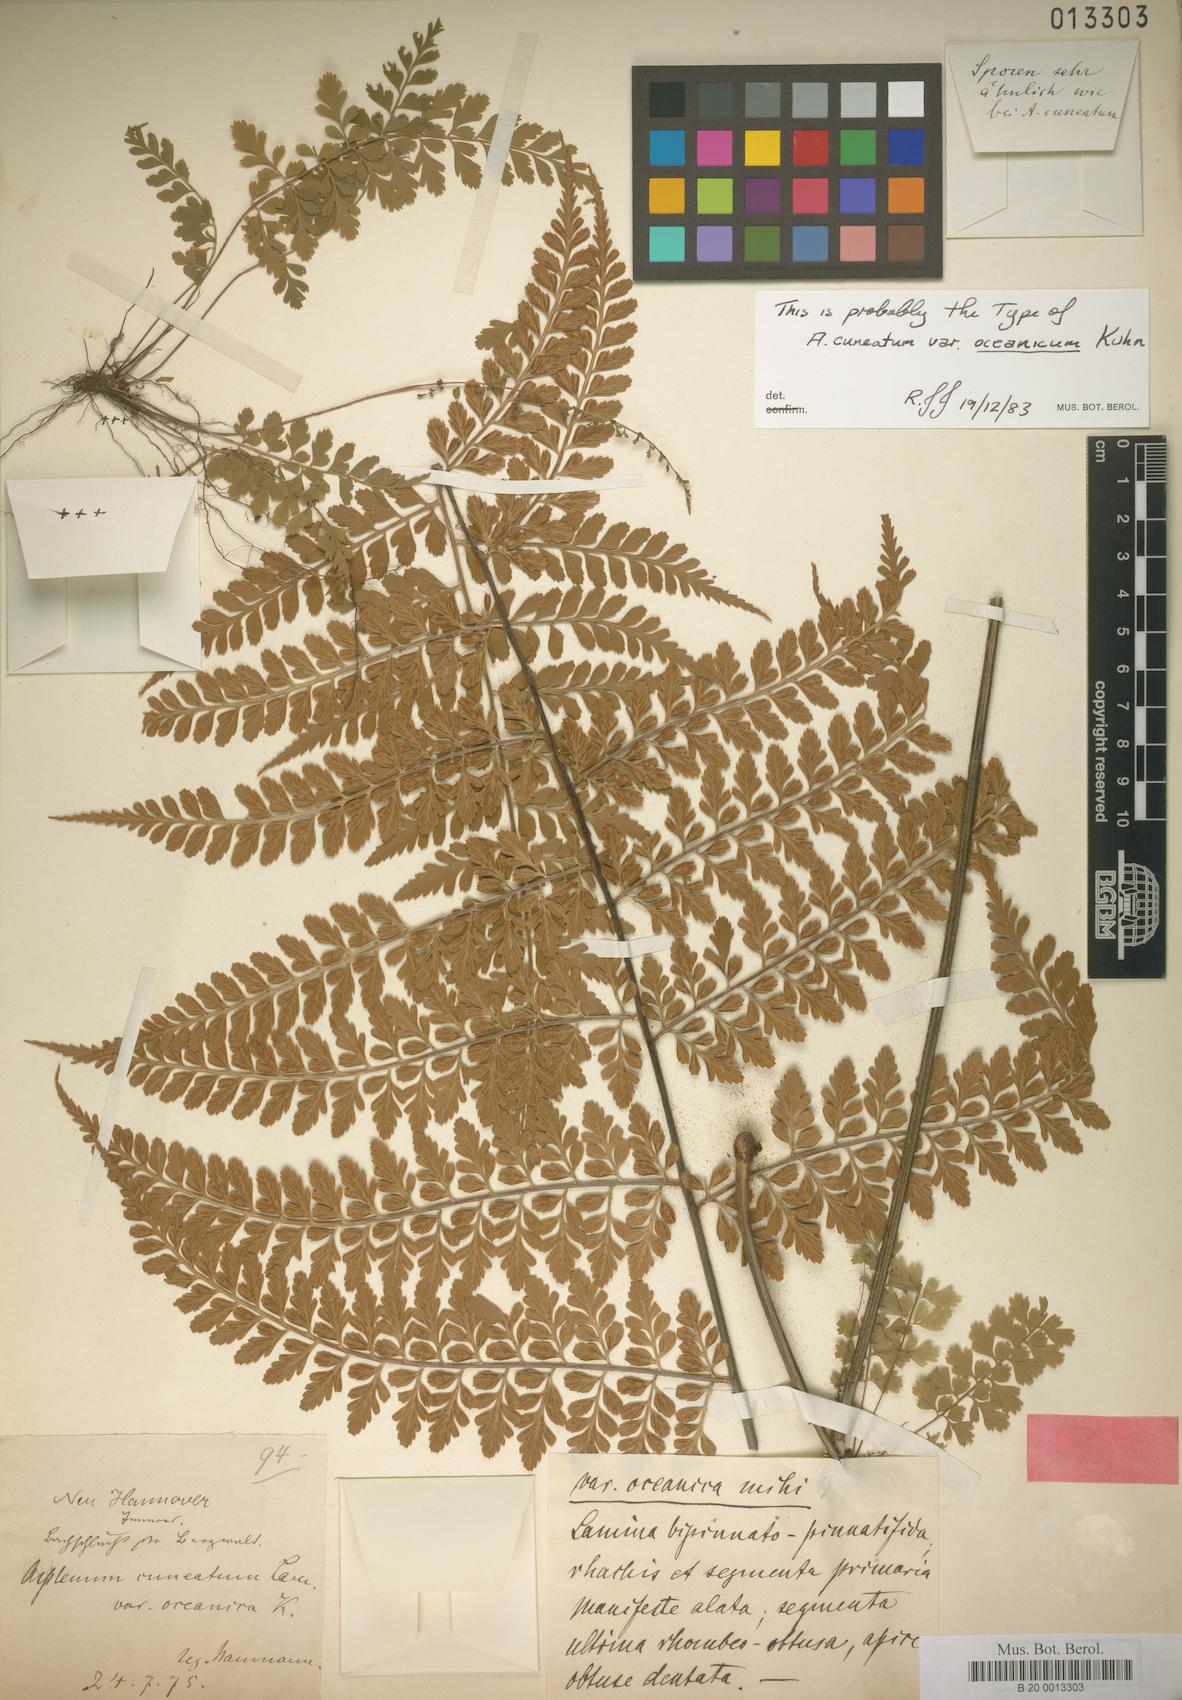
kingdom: Plantae
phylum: Tracheophyta
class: Polypodiopsida
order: Polypodiales
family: Aspleniaceae
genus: Asplenium
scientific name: Asplenium cuneatum
